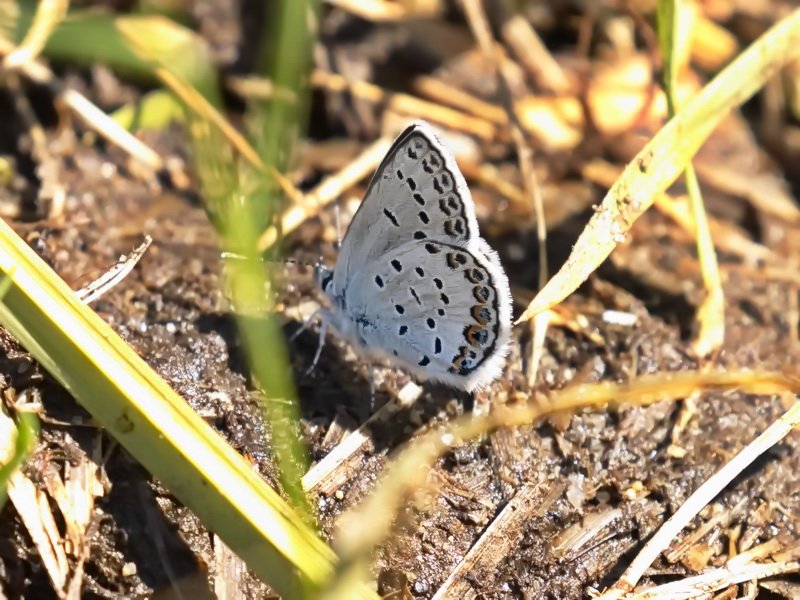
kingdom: Animalia
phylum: Arthropoda
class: Insecta
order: Lepidoptera
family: Lycaenidae
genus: Lycaeides
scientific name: Lycaeides idas
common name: Northern Blue
